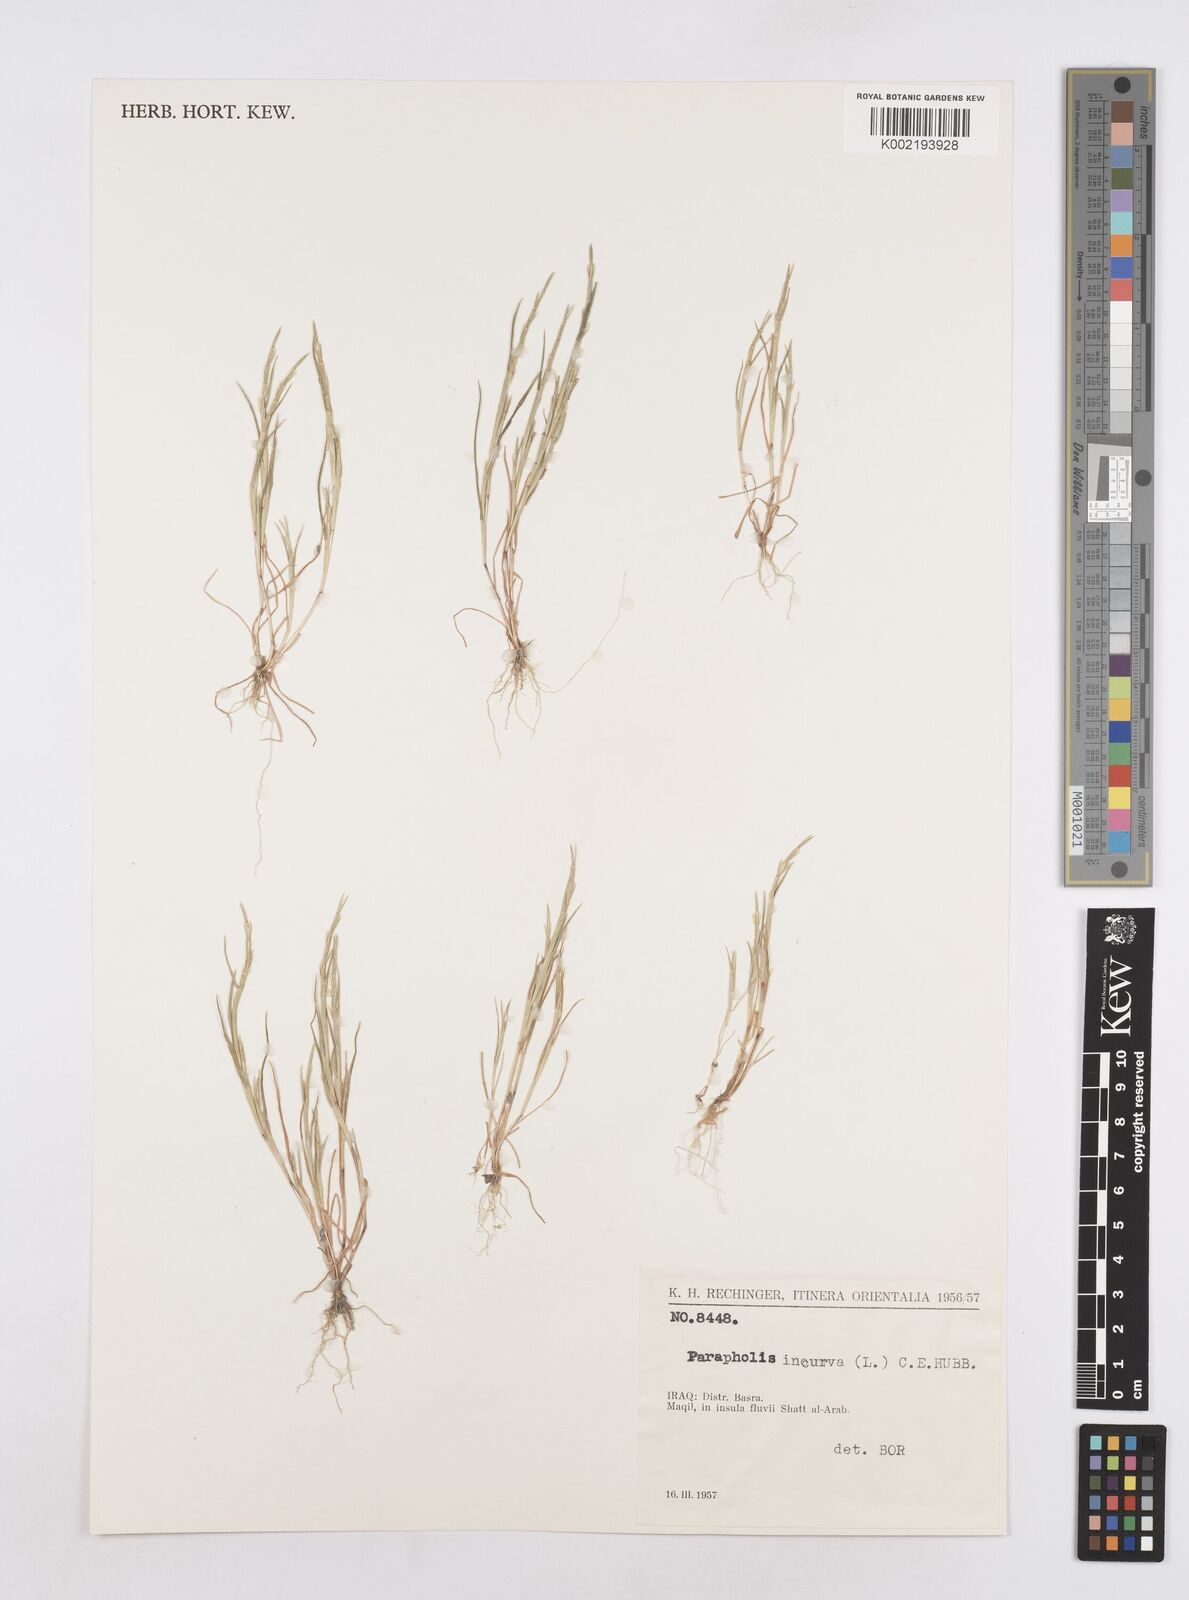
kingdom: Plantae
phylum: Tracheophyta
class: Liliopsida
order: Poales
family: Poaceae
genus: Parapholis
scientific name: Parapholis incurva
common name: Curved sicklegrass
